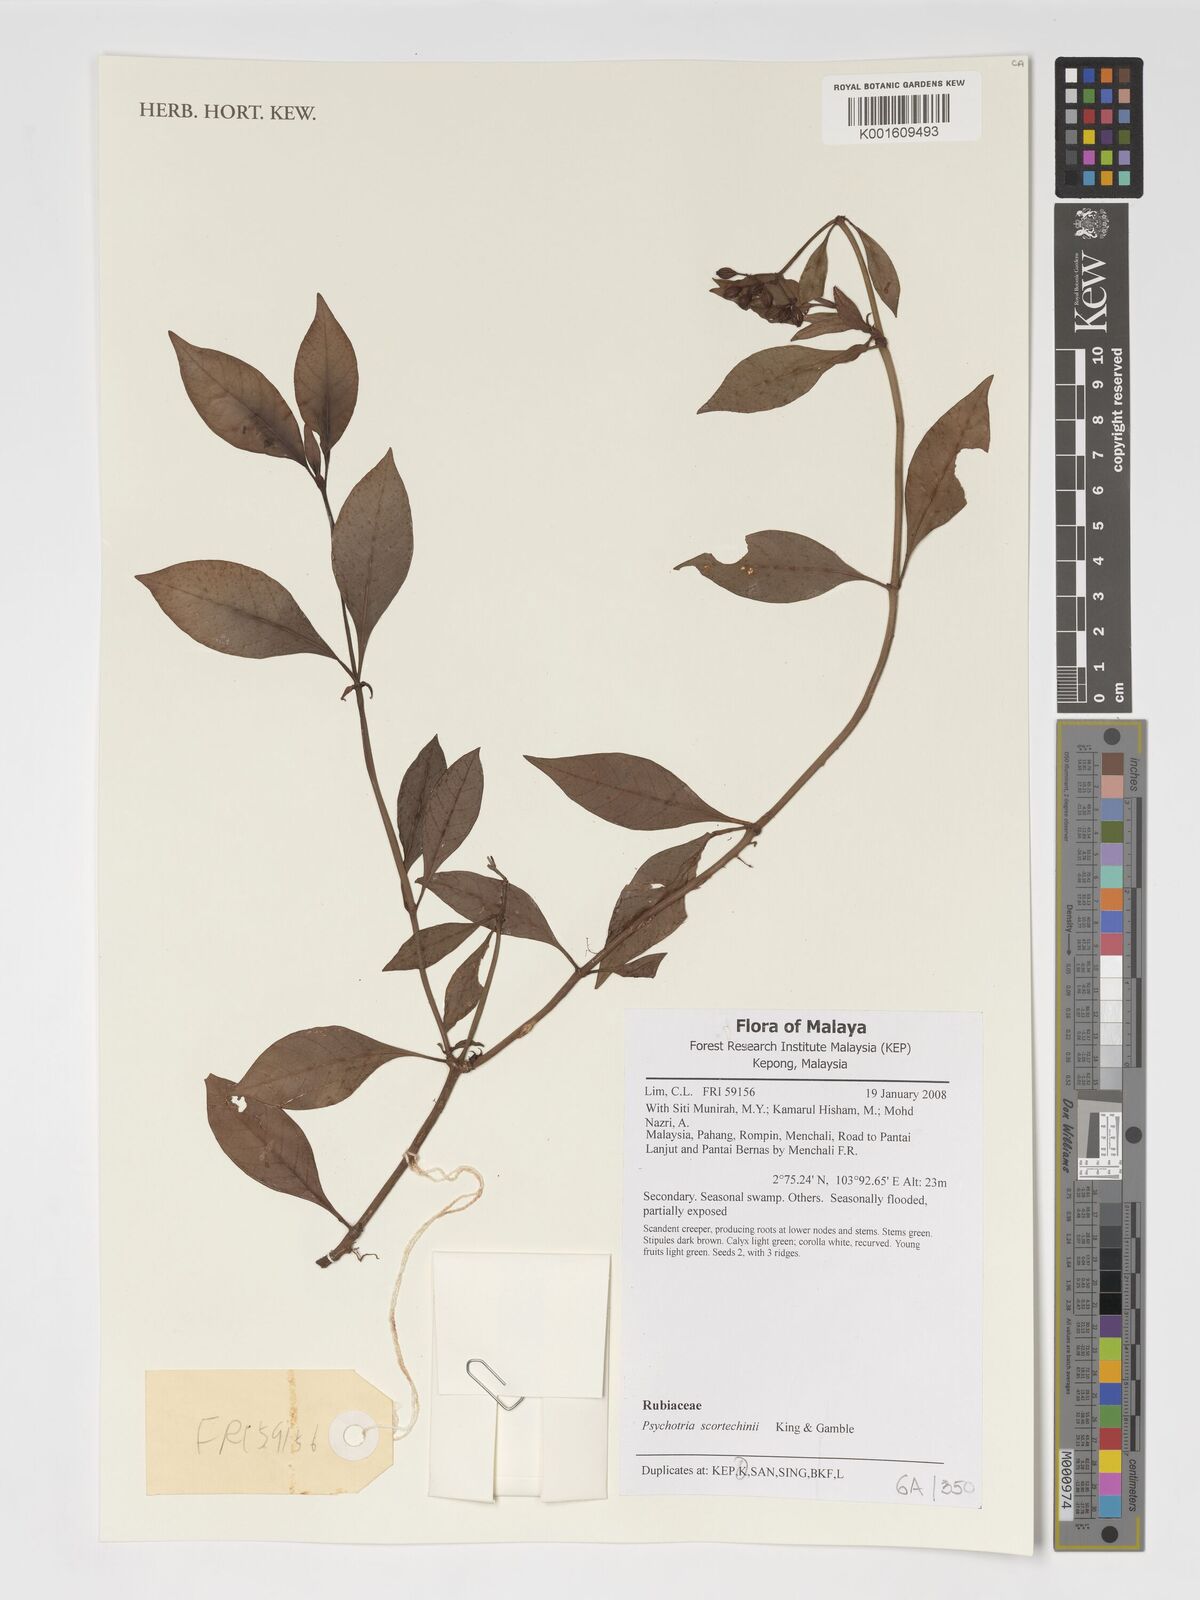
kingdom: Plantae
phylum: Tracheophyta
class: Magnoliopsida
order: Gentianales
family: Rubiaceae
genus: Psychotria
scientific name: Psychotria scortechinii
